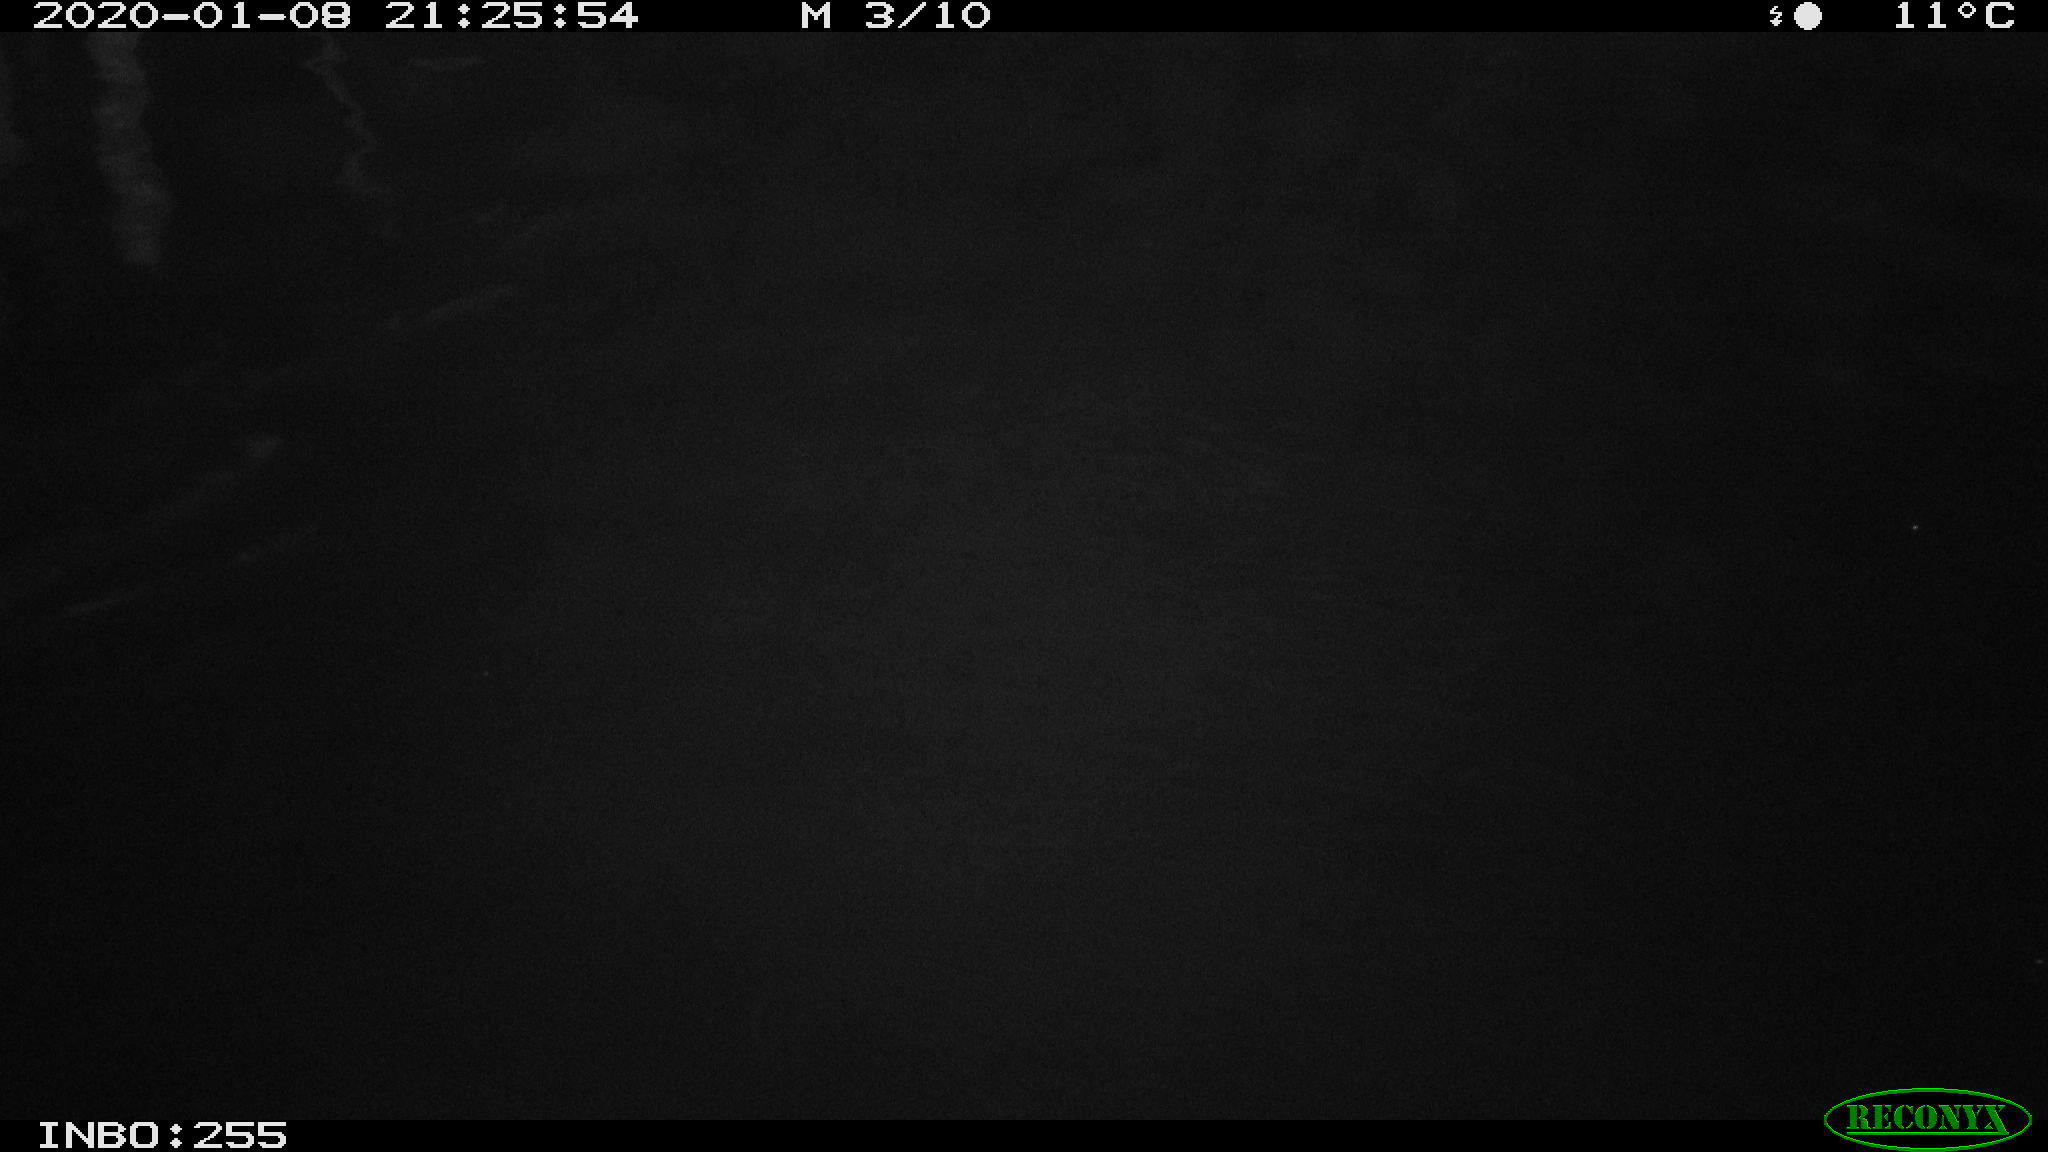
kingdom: Animalia
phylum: Chordata
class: Aves
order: Anseriformes
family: Anatidae
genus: Anas
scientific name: Anas platyrhynchos
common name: Mallard
